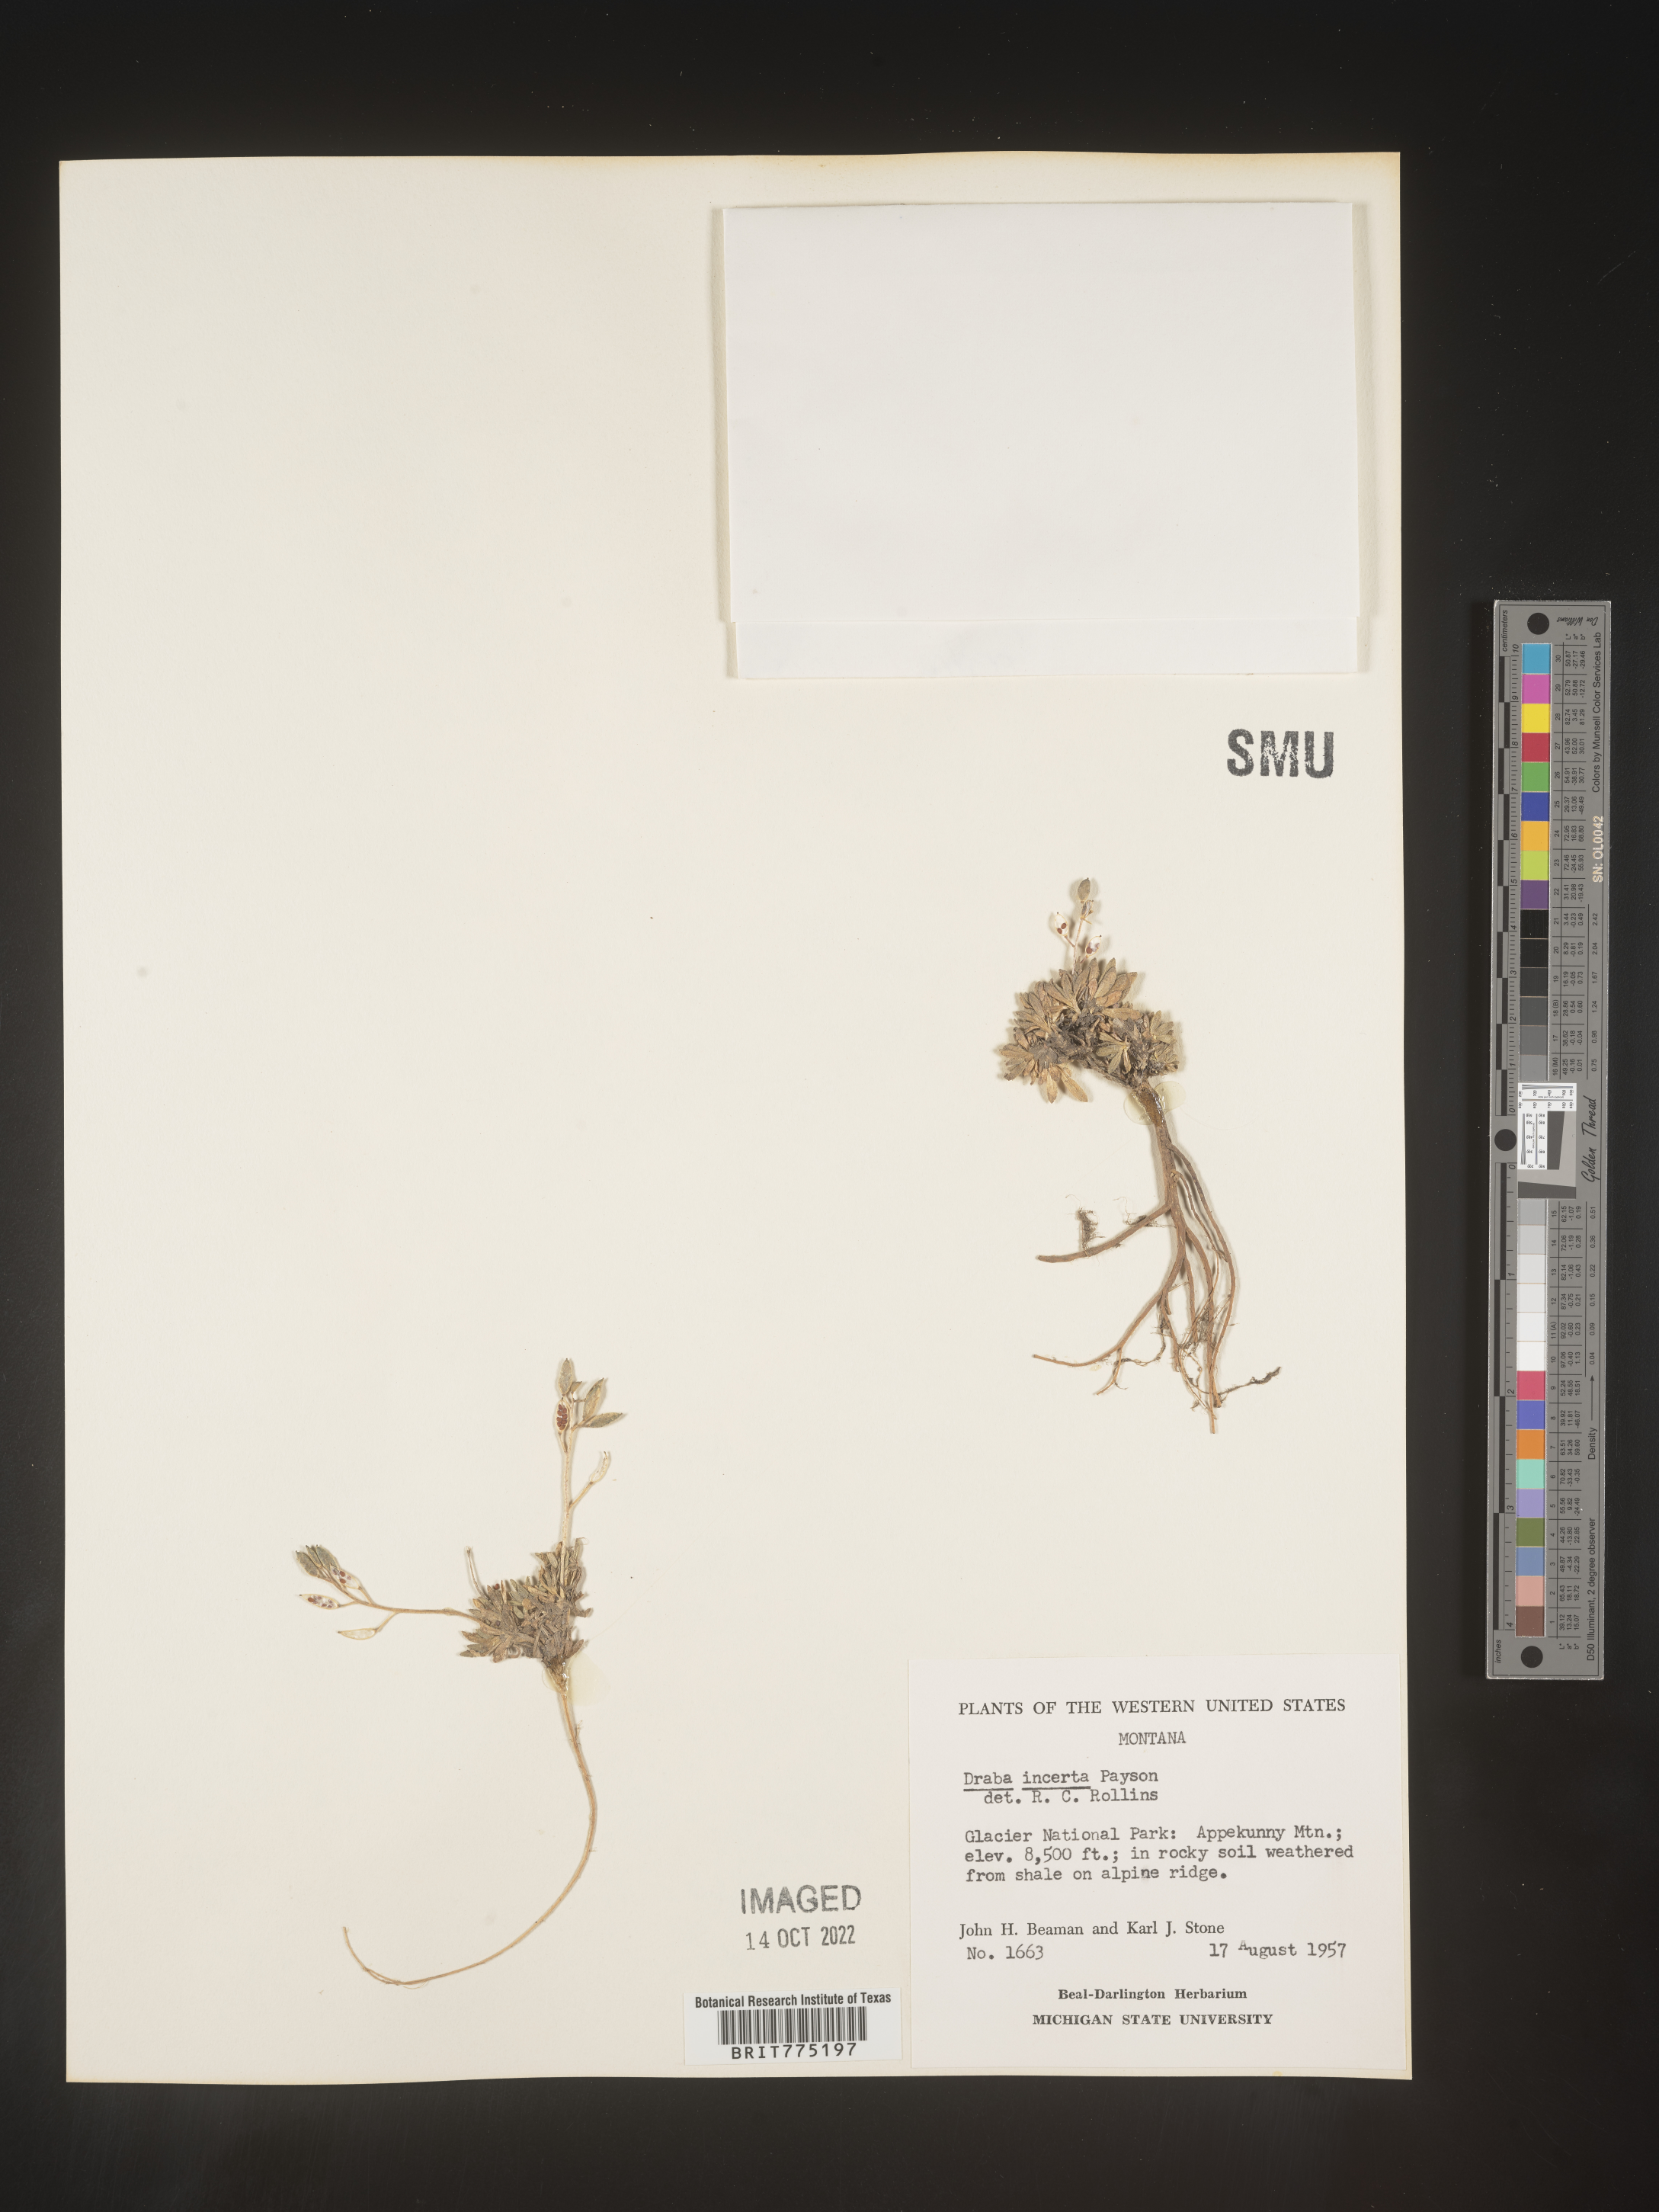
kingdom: Plantae
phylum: Tracheophyta
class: Magnoliopsida
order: Brassicales
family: Brassicaceae
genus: Draba
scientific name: Draba
